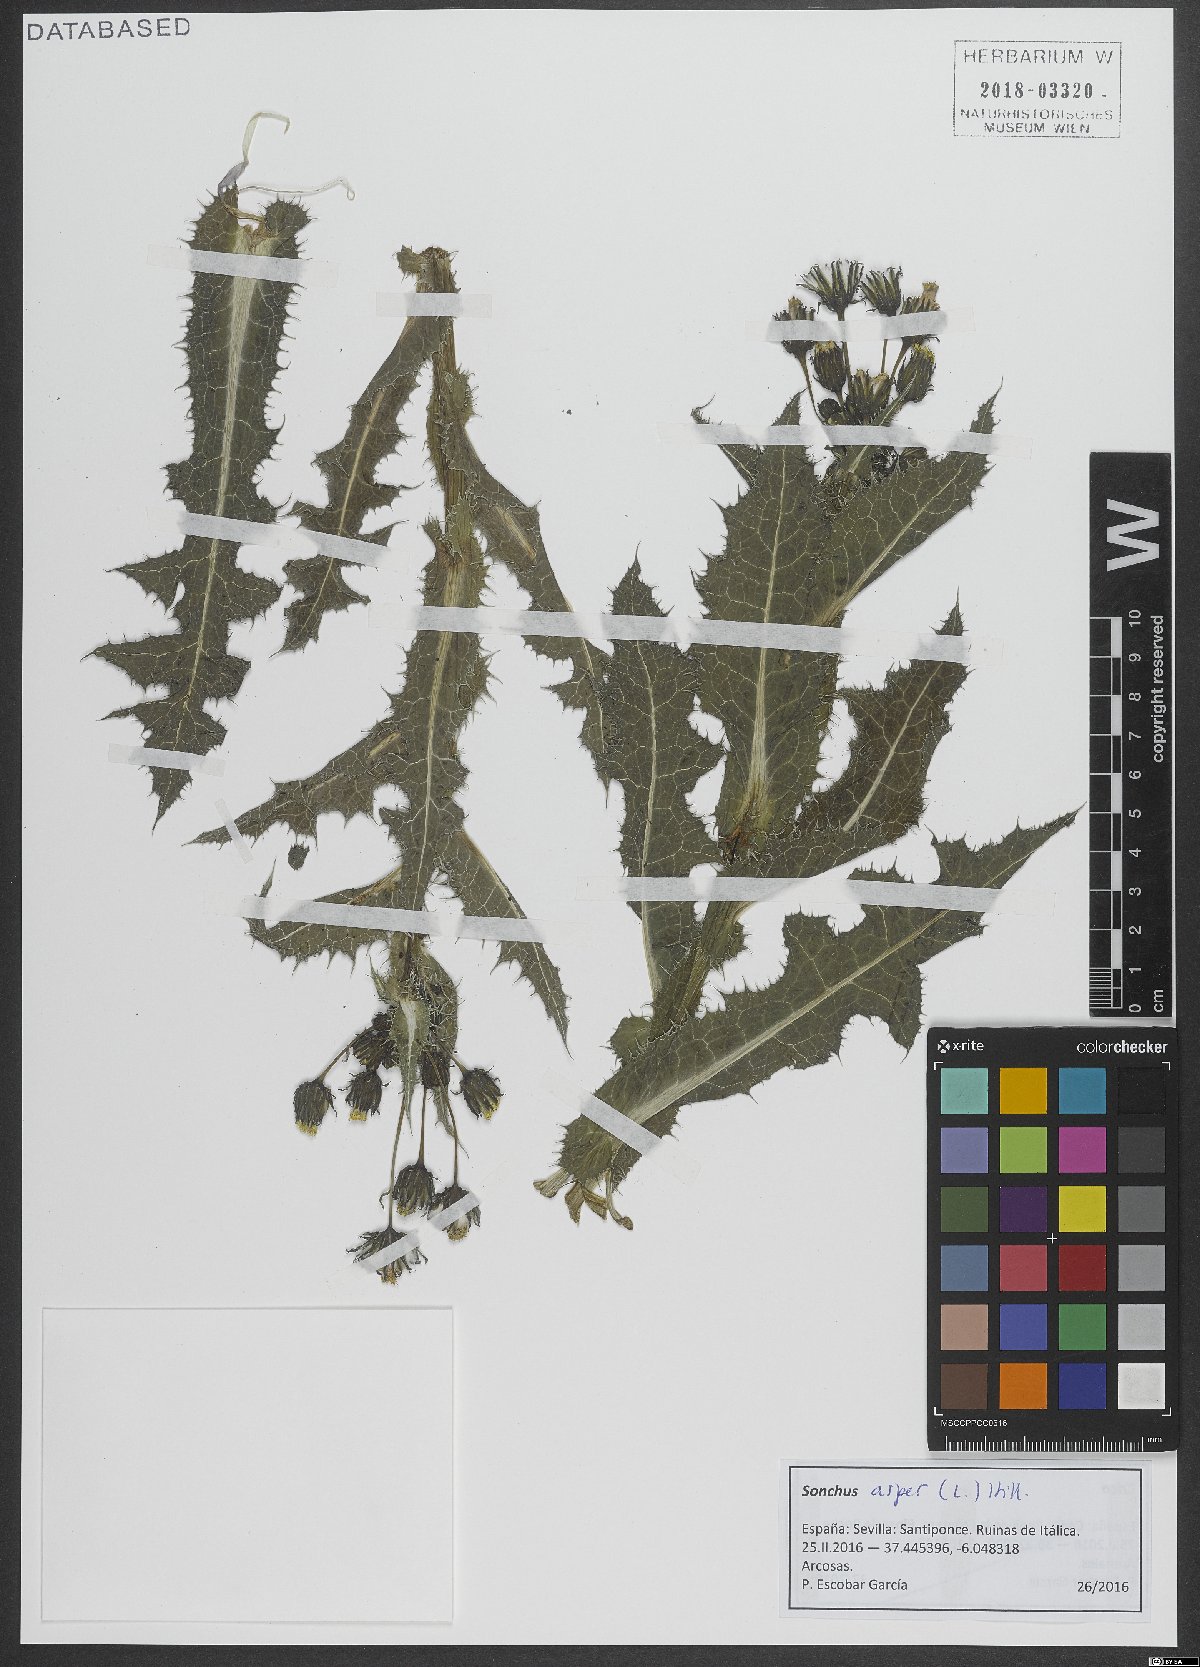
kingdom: Plantae
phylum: Tracheophyta
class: Magnoliopsida
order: Asterales
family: Asteraceae
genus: Sonchus
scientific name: Sonchus asper
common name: Prickly sow-thistle
